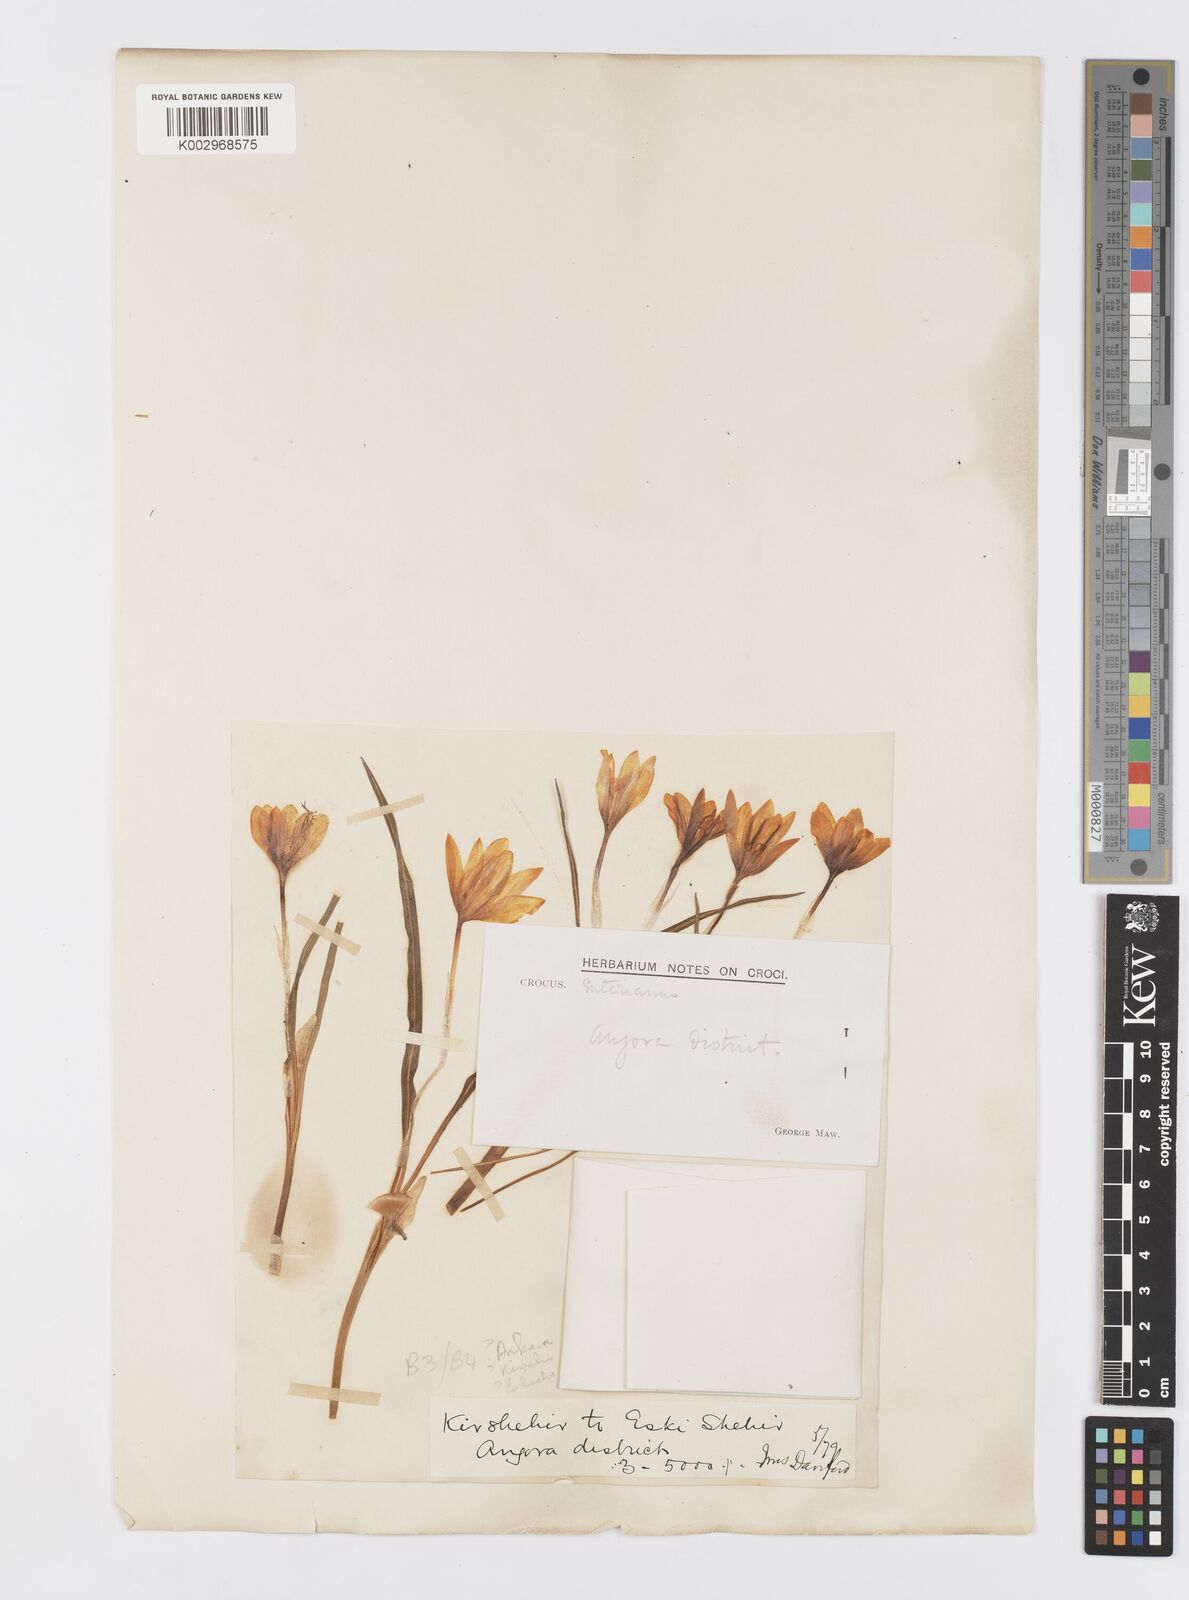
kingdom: Plantae
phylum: Tracheophyta
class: Liliopsida
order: Asparagales
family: Iridaceae
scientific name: Iridaceae
